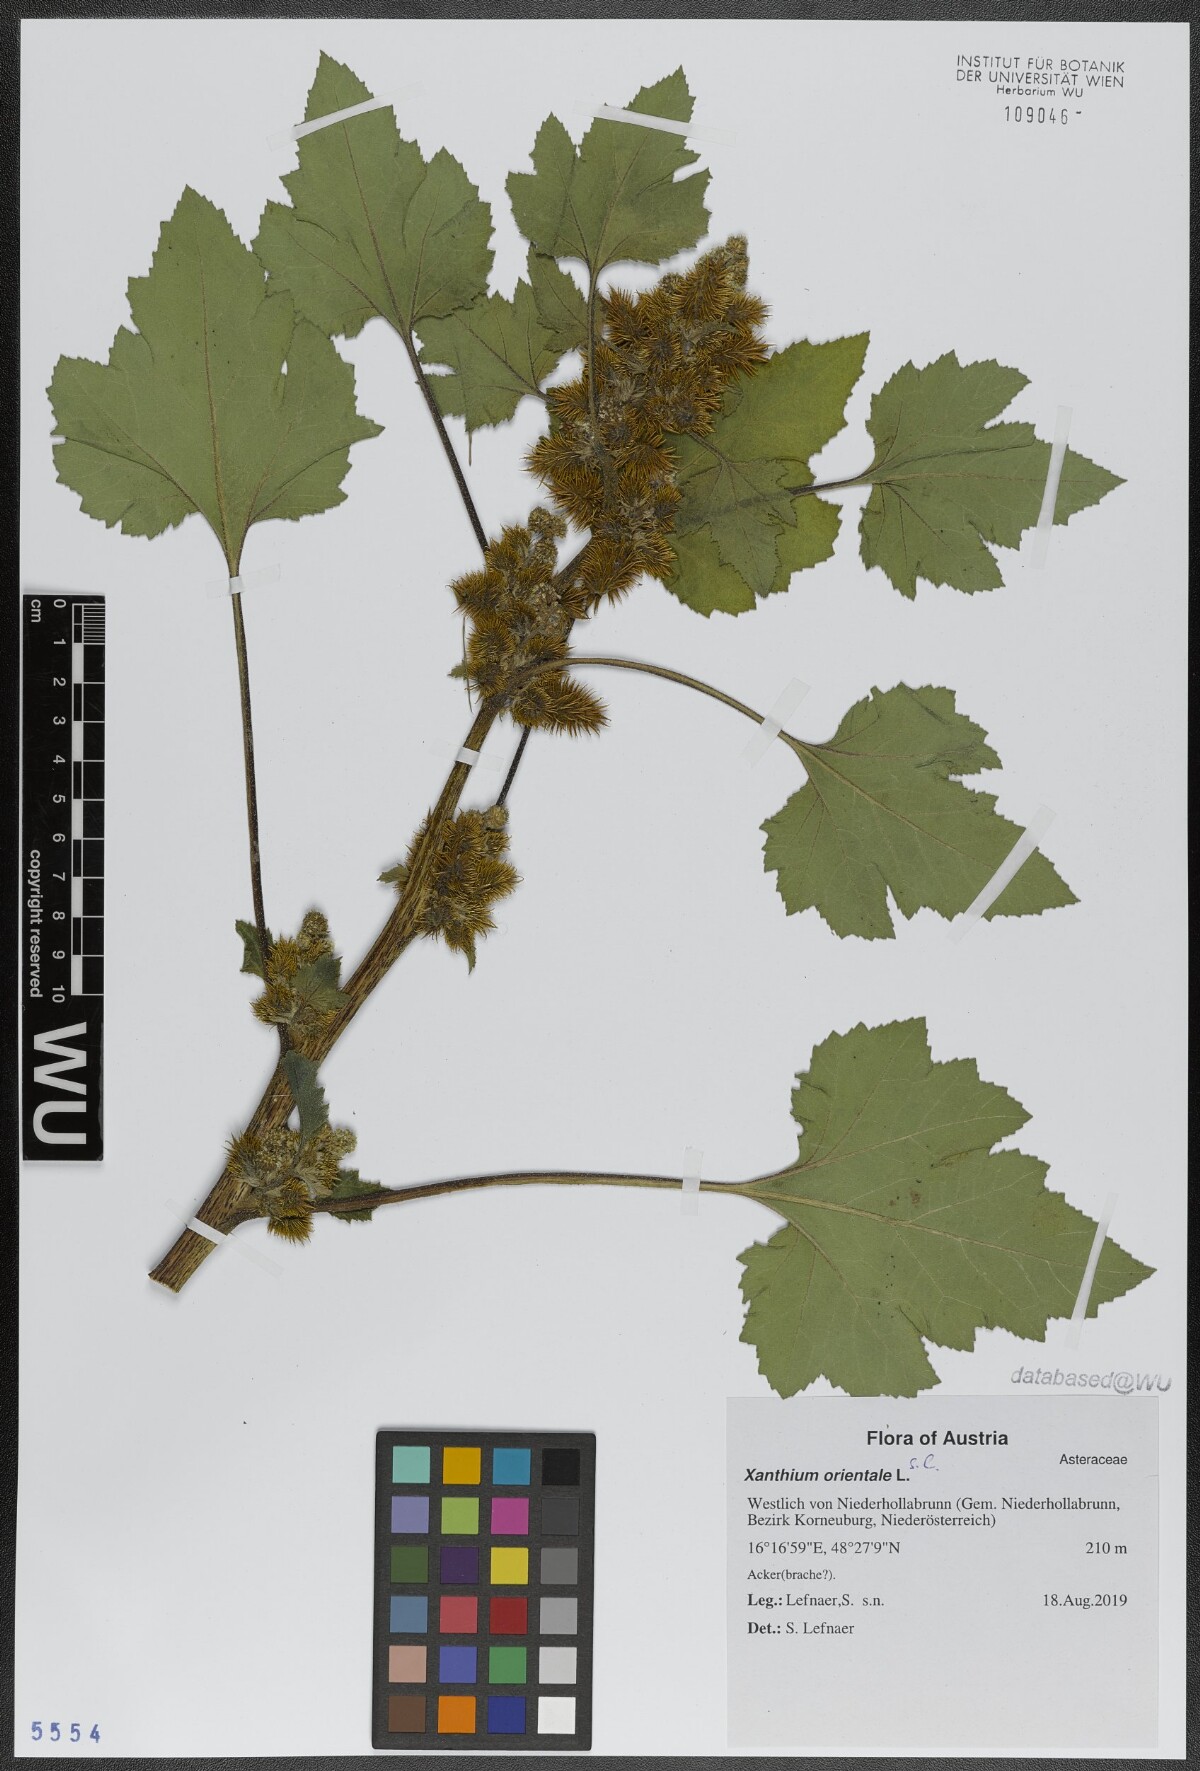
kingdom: Plantae
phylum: Tracheophyta
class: Magnoliopsida
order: Asterales
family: Asteraceae
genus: Xanthium
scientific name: Xanthium orientale
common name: Californian burr
